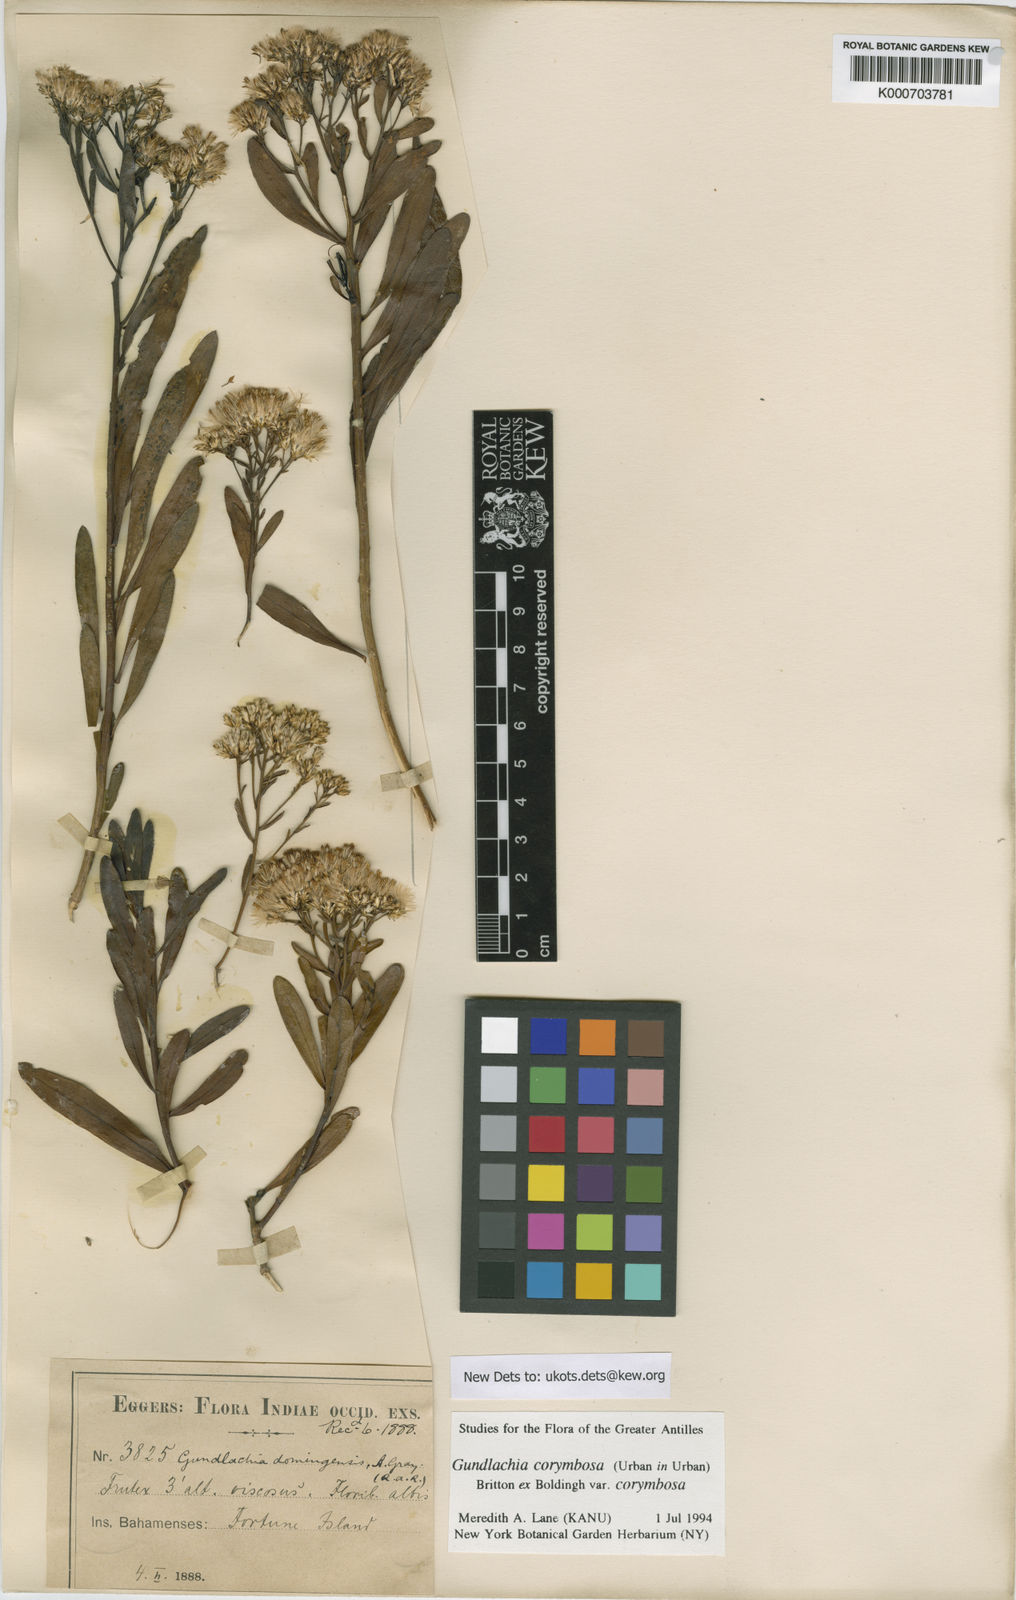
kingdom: Plantae
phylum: Tracheophyta
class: Magnoliopsida
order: Asterales
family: Asteraceae
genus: Gundlachia
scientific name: Gundlachia corymbosa
